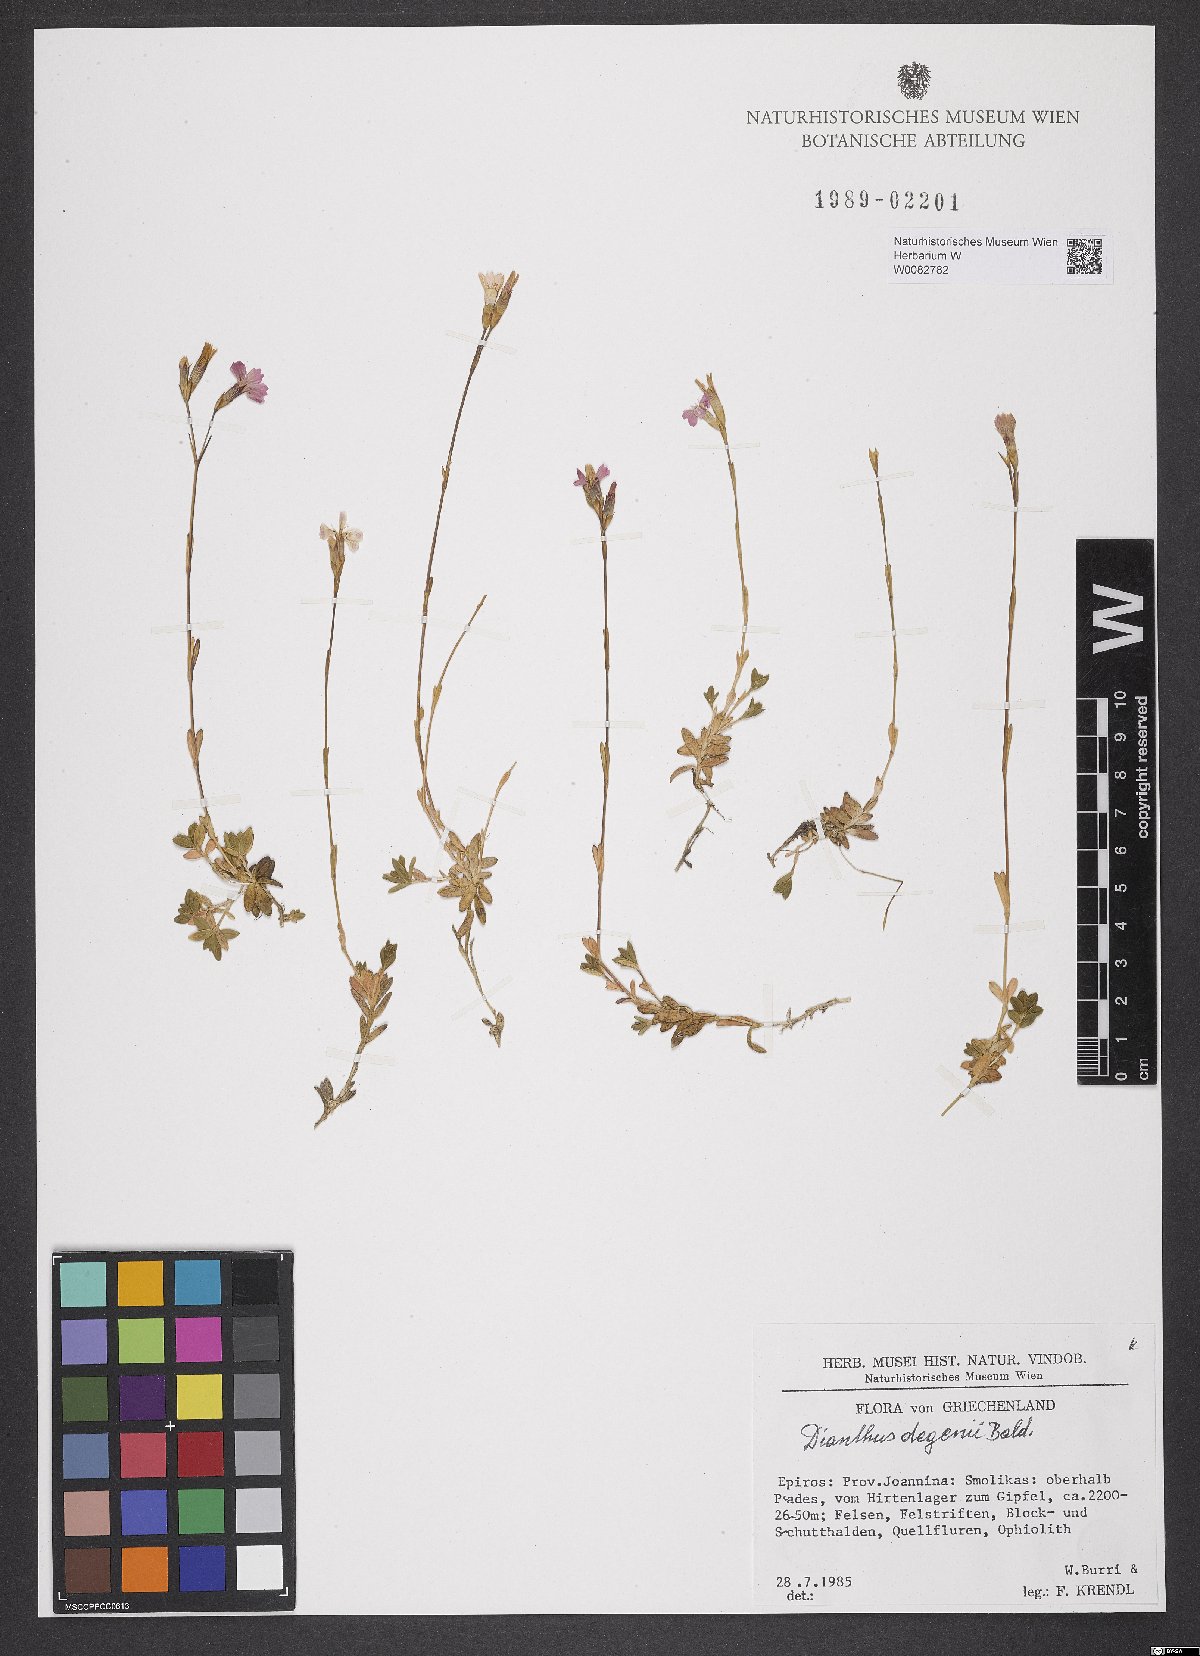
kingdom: Plantae
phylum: Tracheophyta
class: Magnoliopsida
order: Caryophyllales
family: Caryophyllaceae
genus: Dianthus
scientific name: Dianthus deltoides
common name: Maiden pink
